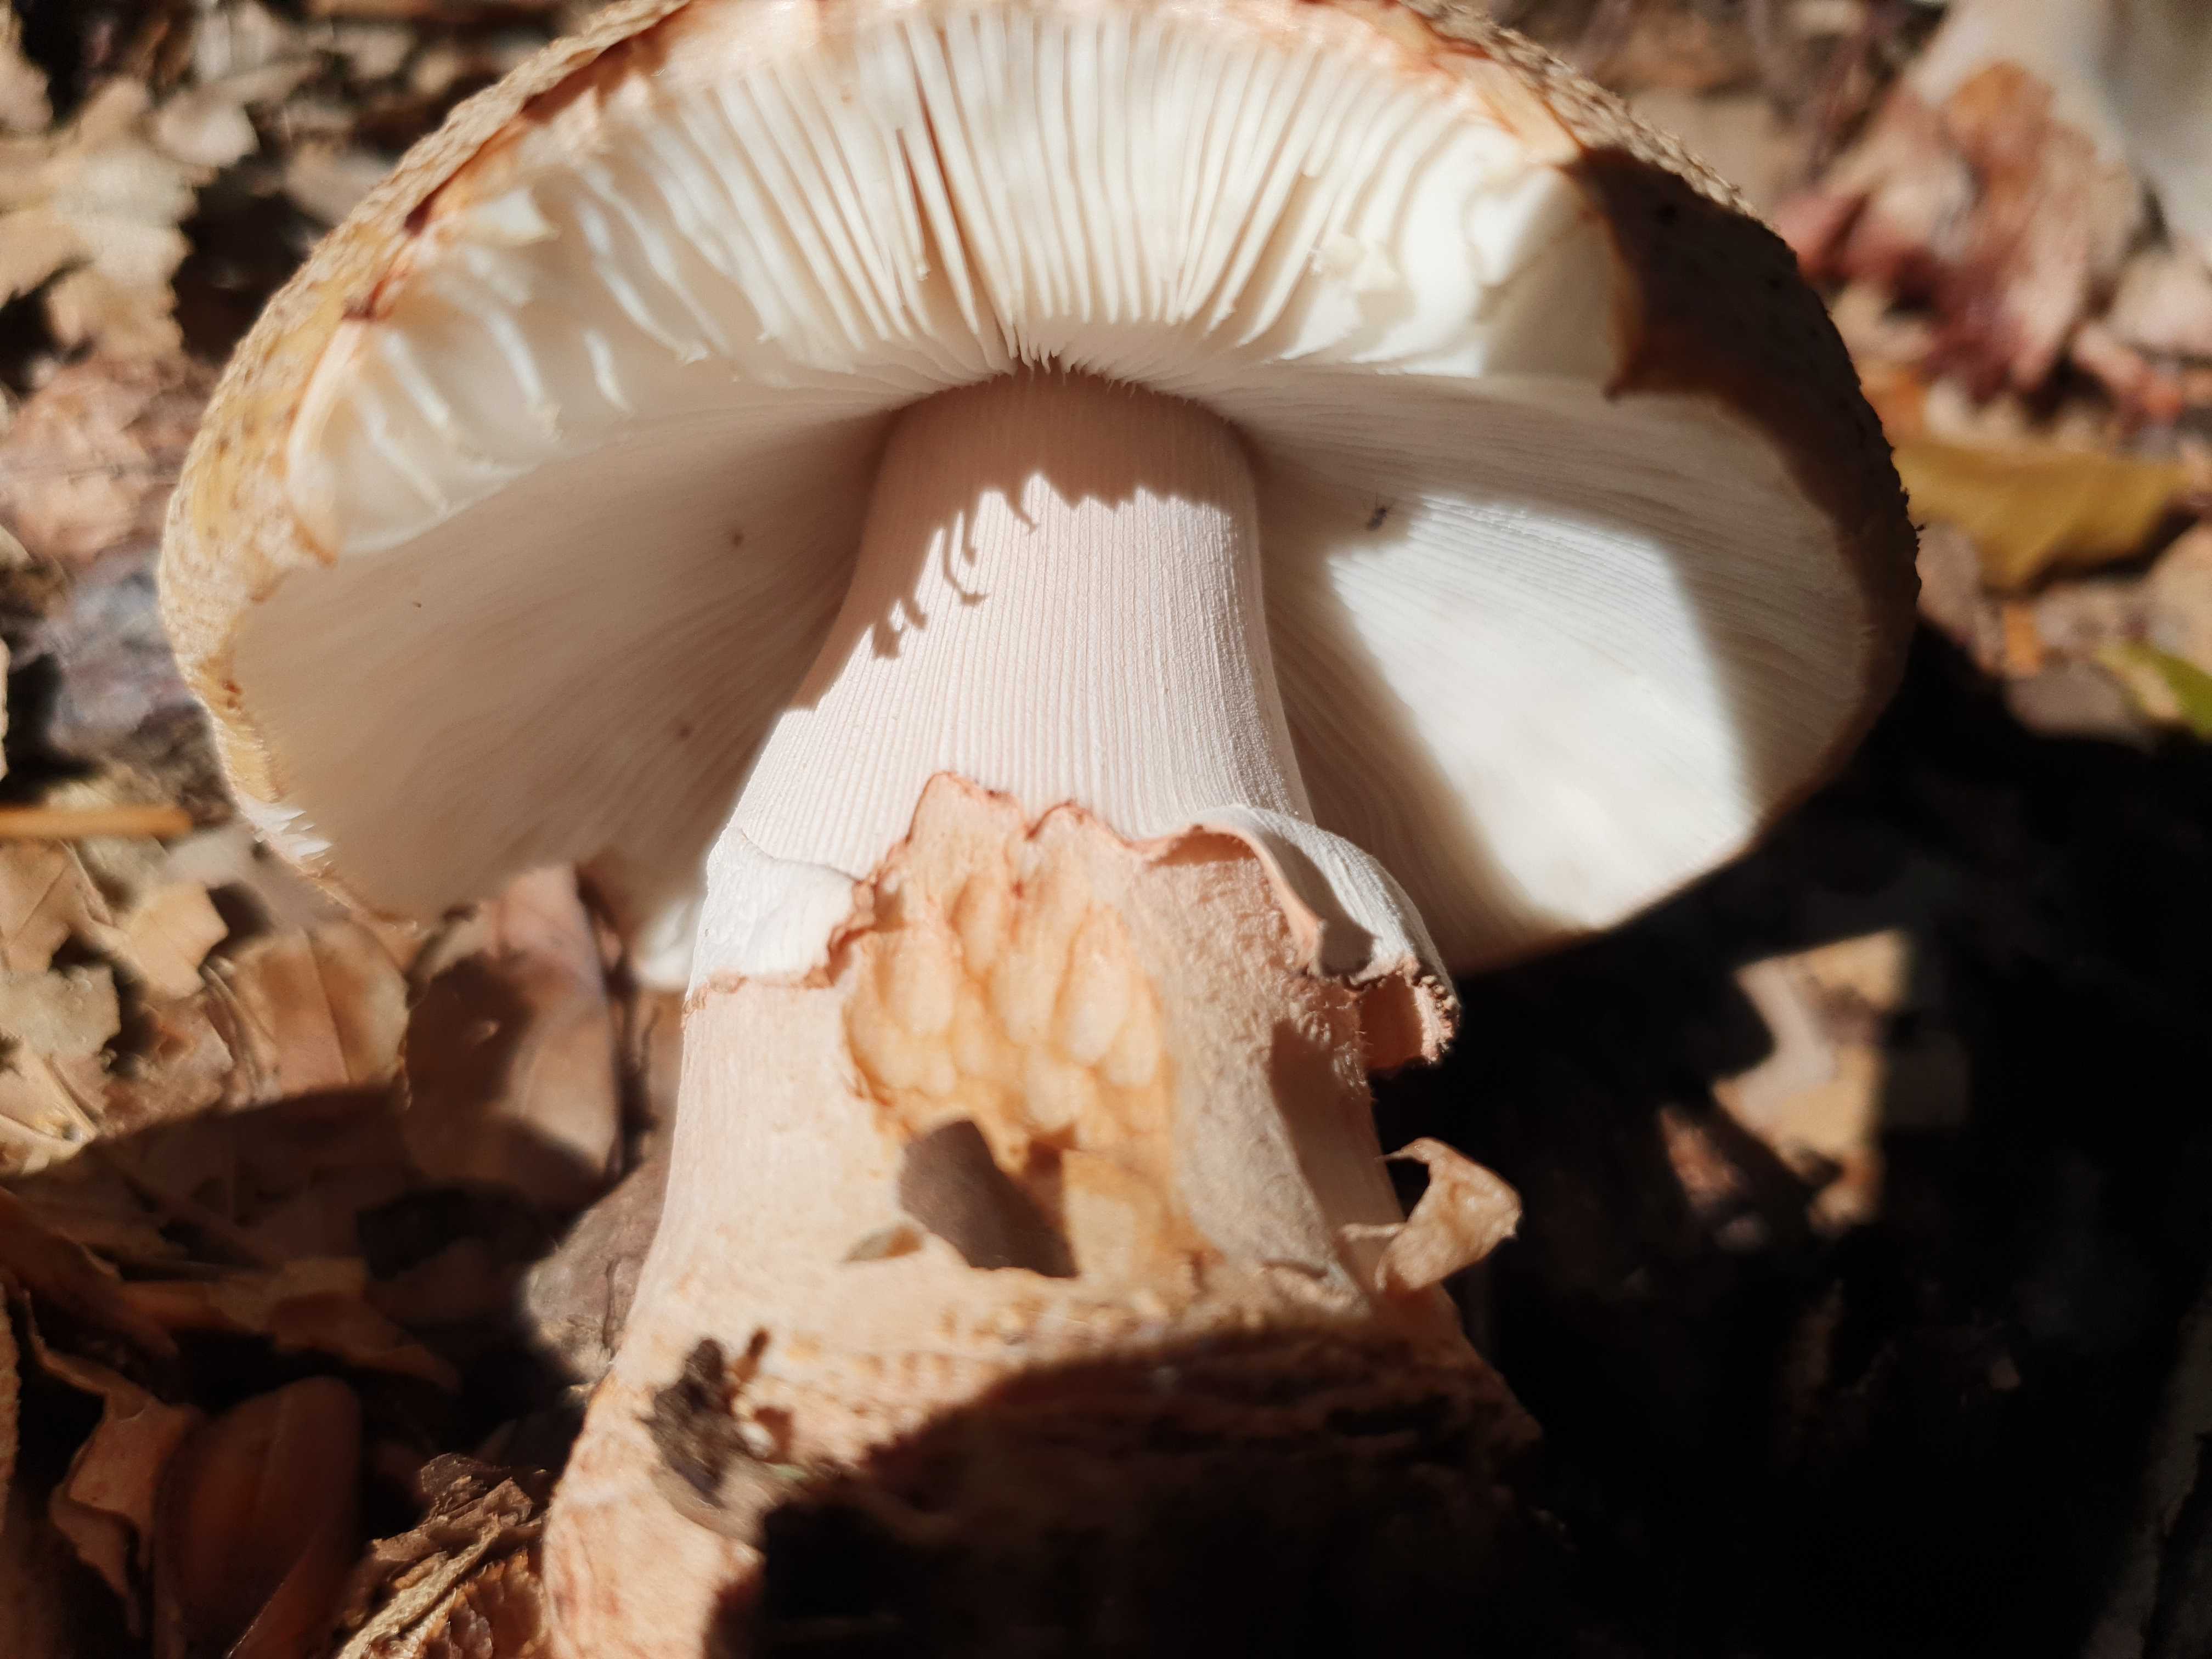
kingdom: Fungi
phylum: Basidiomycota
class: Agaricomycetes
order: Agaricales
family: Amanitaceae
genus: Amanita
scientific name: Amanita rubescens
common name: rødmende fluesvamp
